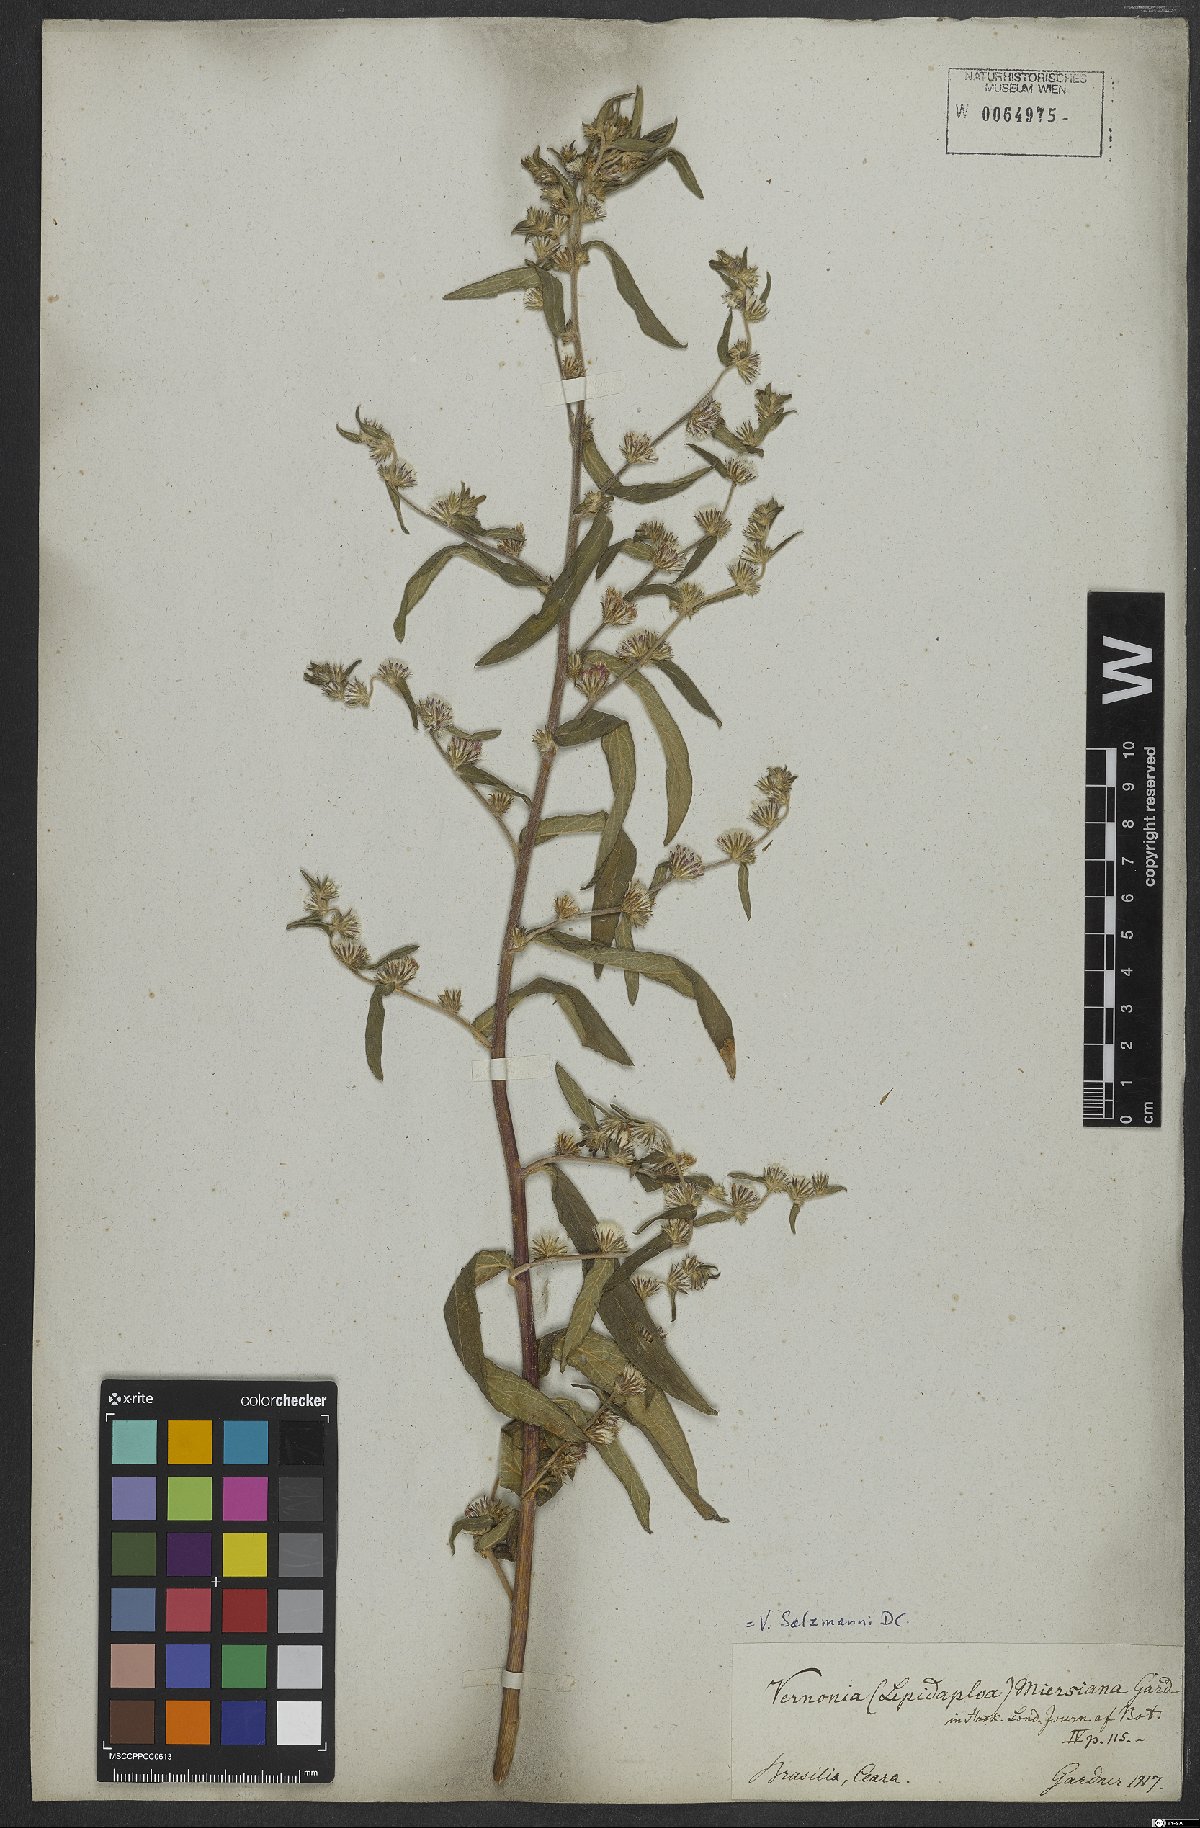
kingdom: Plantae
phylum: Tracheophyta
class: Magnoliopsida
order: Asterales
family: Asteraceae
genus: Lepidaploa
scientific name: Lepidaploa salzmannii
